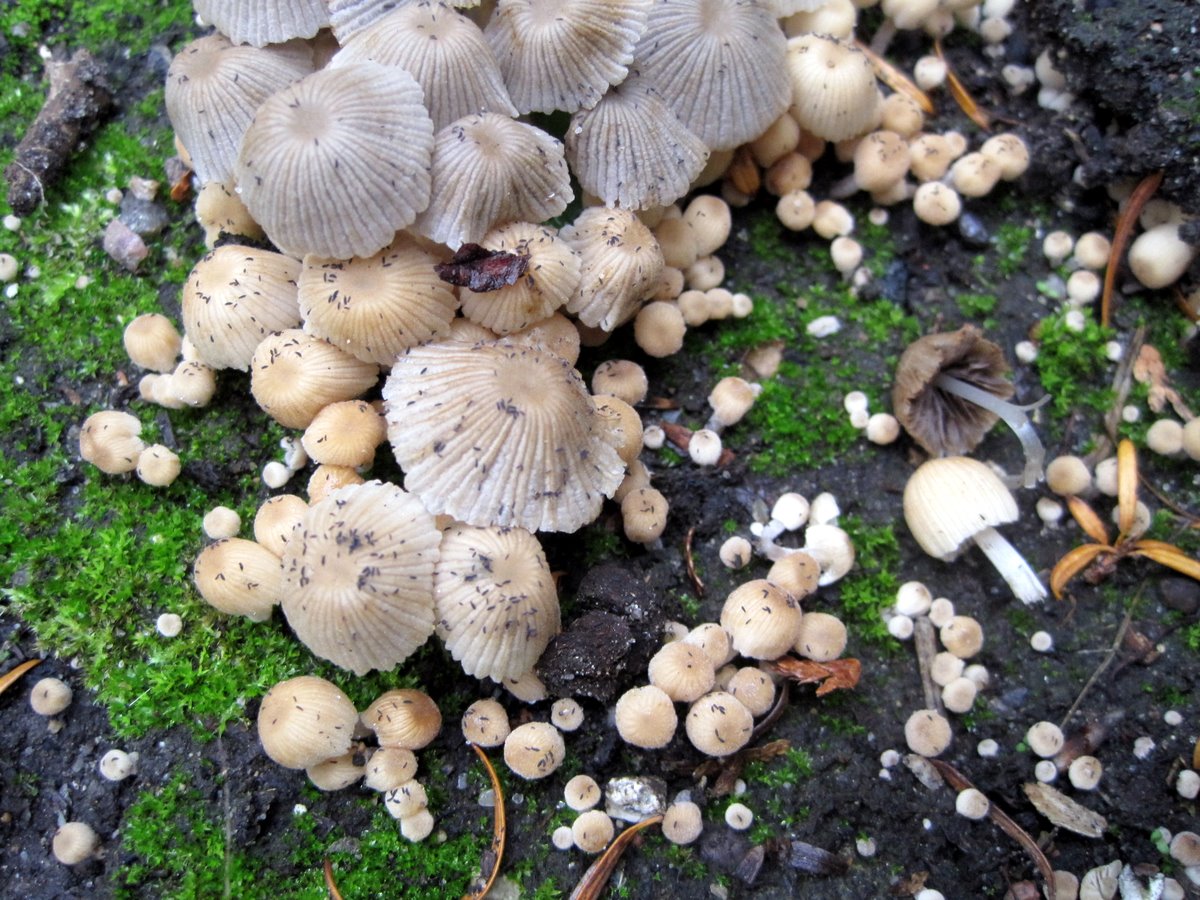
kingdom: Fungi
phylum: Basidiomycota
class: Agaricomycetes
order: Agaricales
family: Psathyrellaceae
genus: Coprinellus
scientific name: Coprinellus disseminatus
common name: bredsået blækhat
